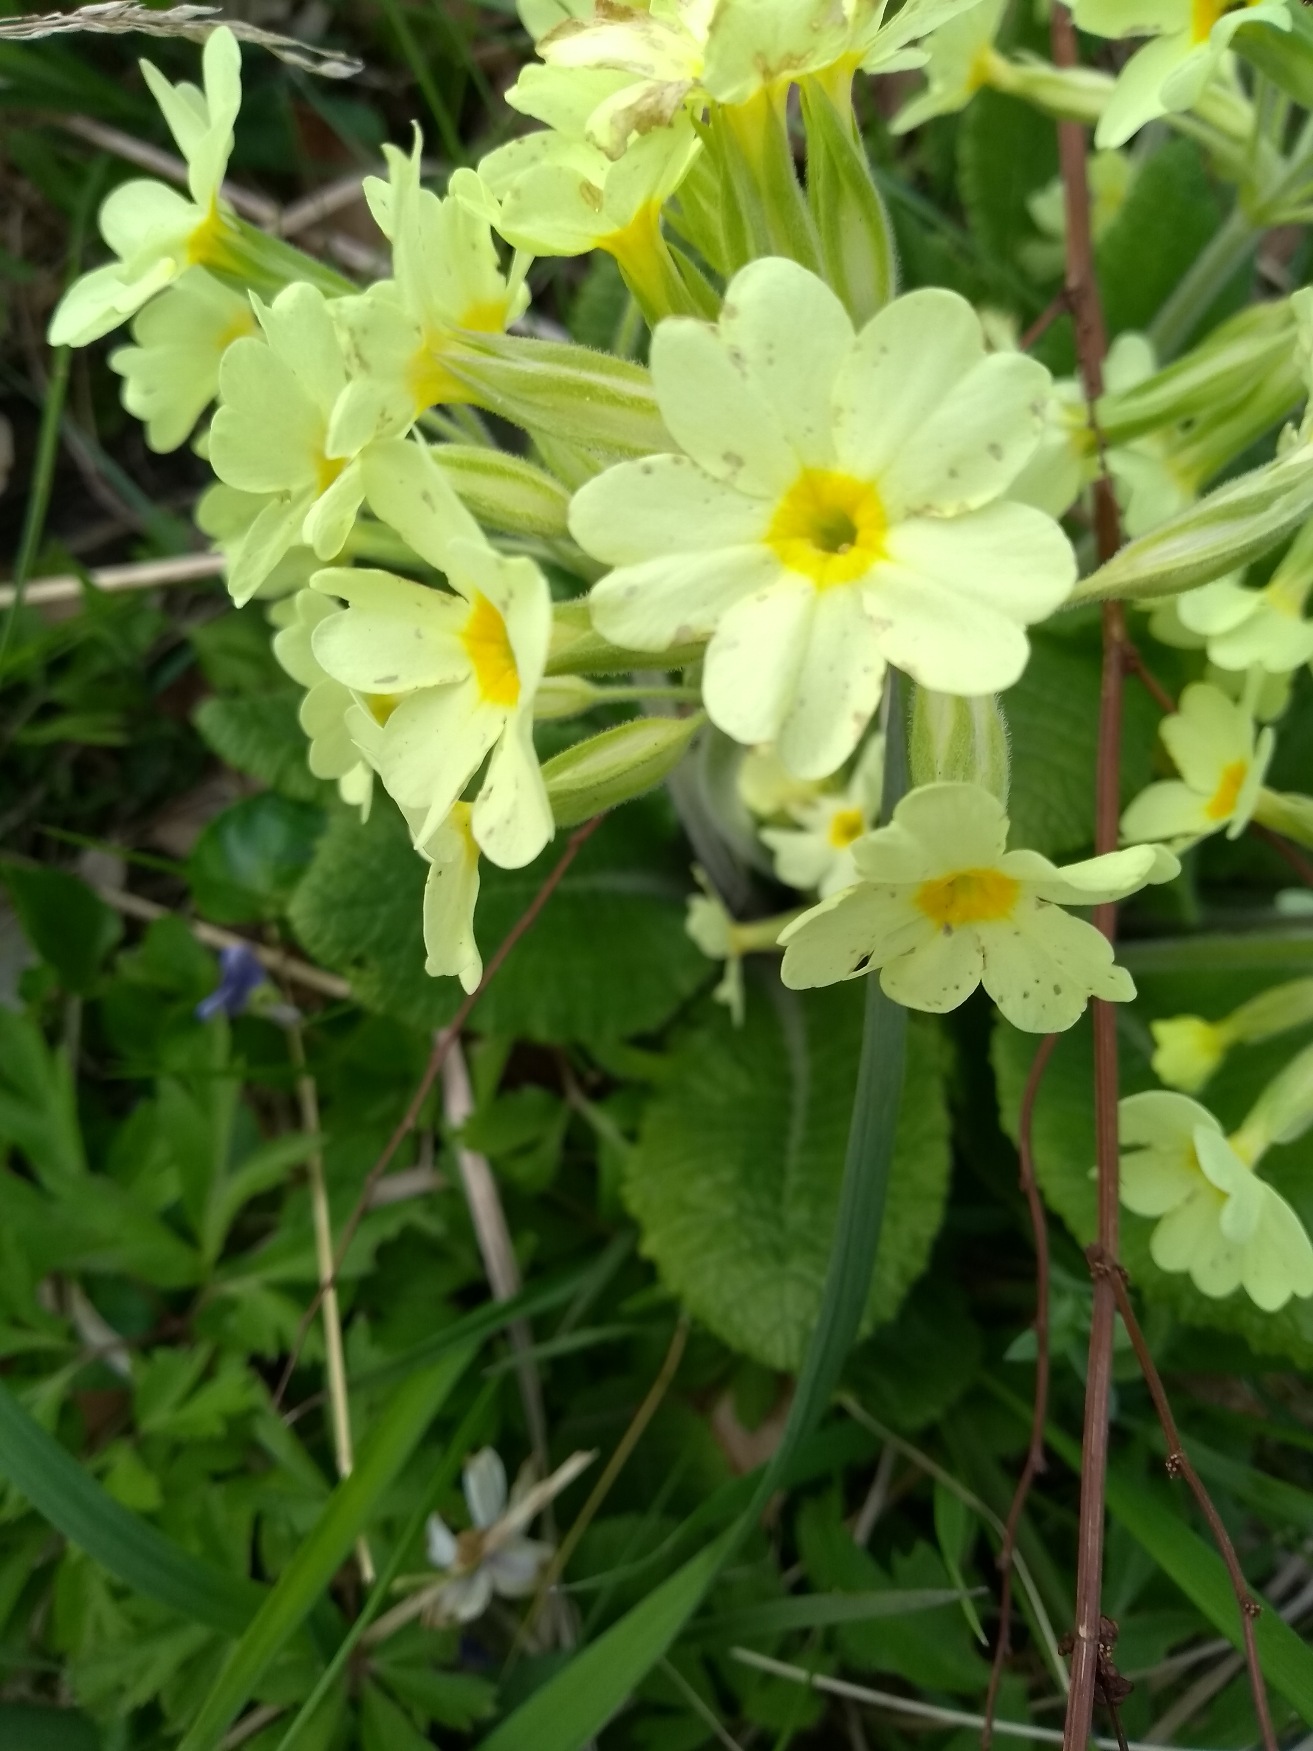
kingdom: Plantae
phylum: Tracheophyta
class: Magnoliopsida
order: Ericales
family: Primulaceae
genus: Primula
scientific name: Primula elatior
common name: Fladkravet kodriver
